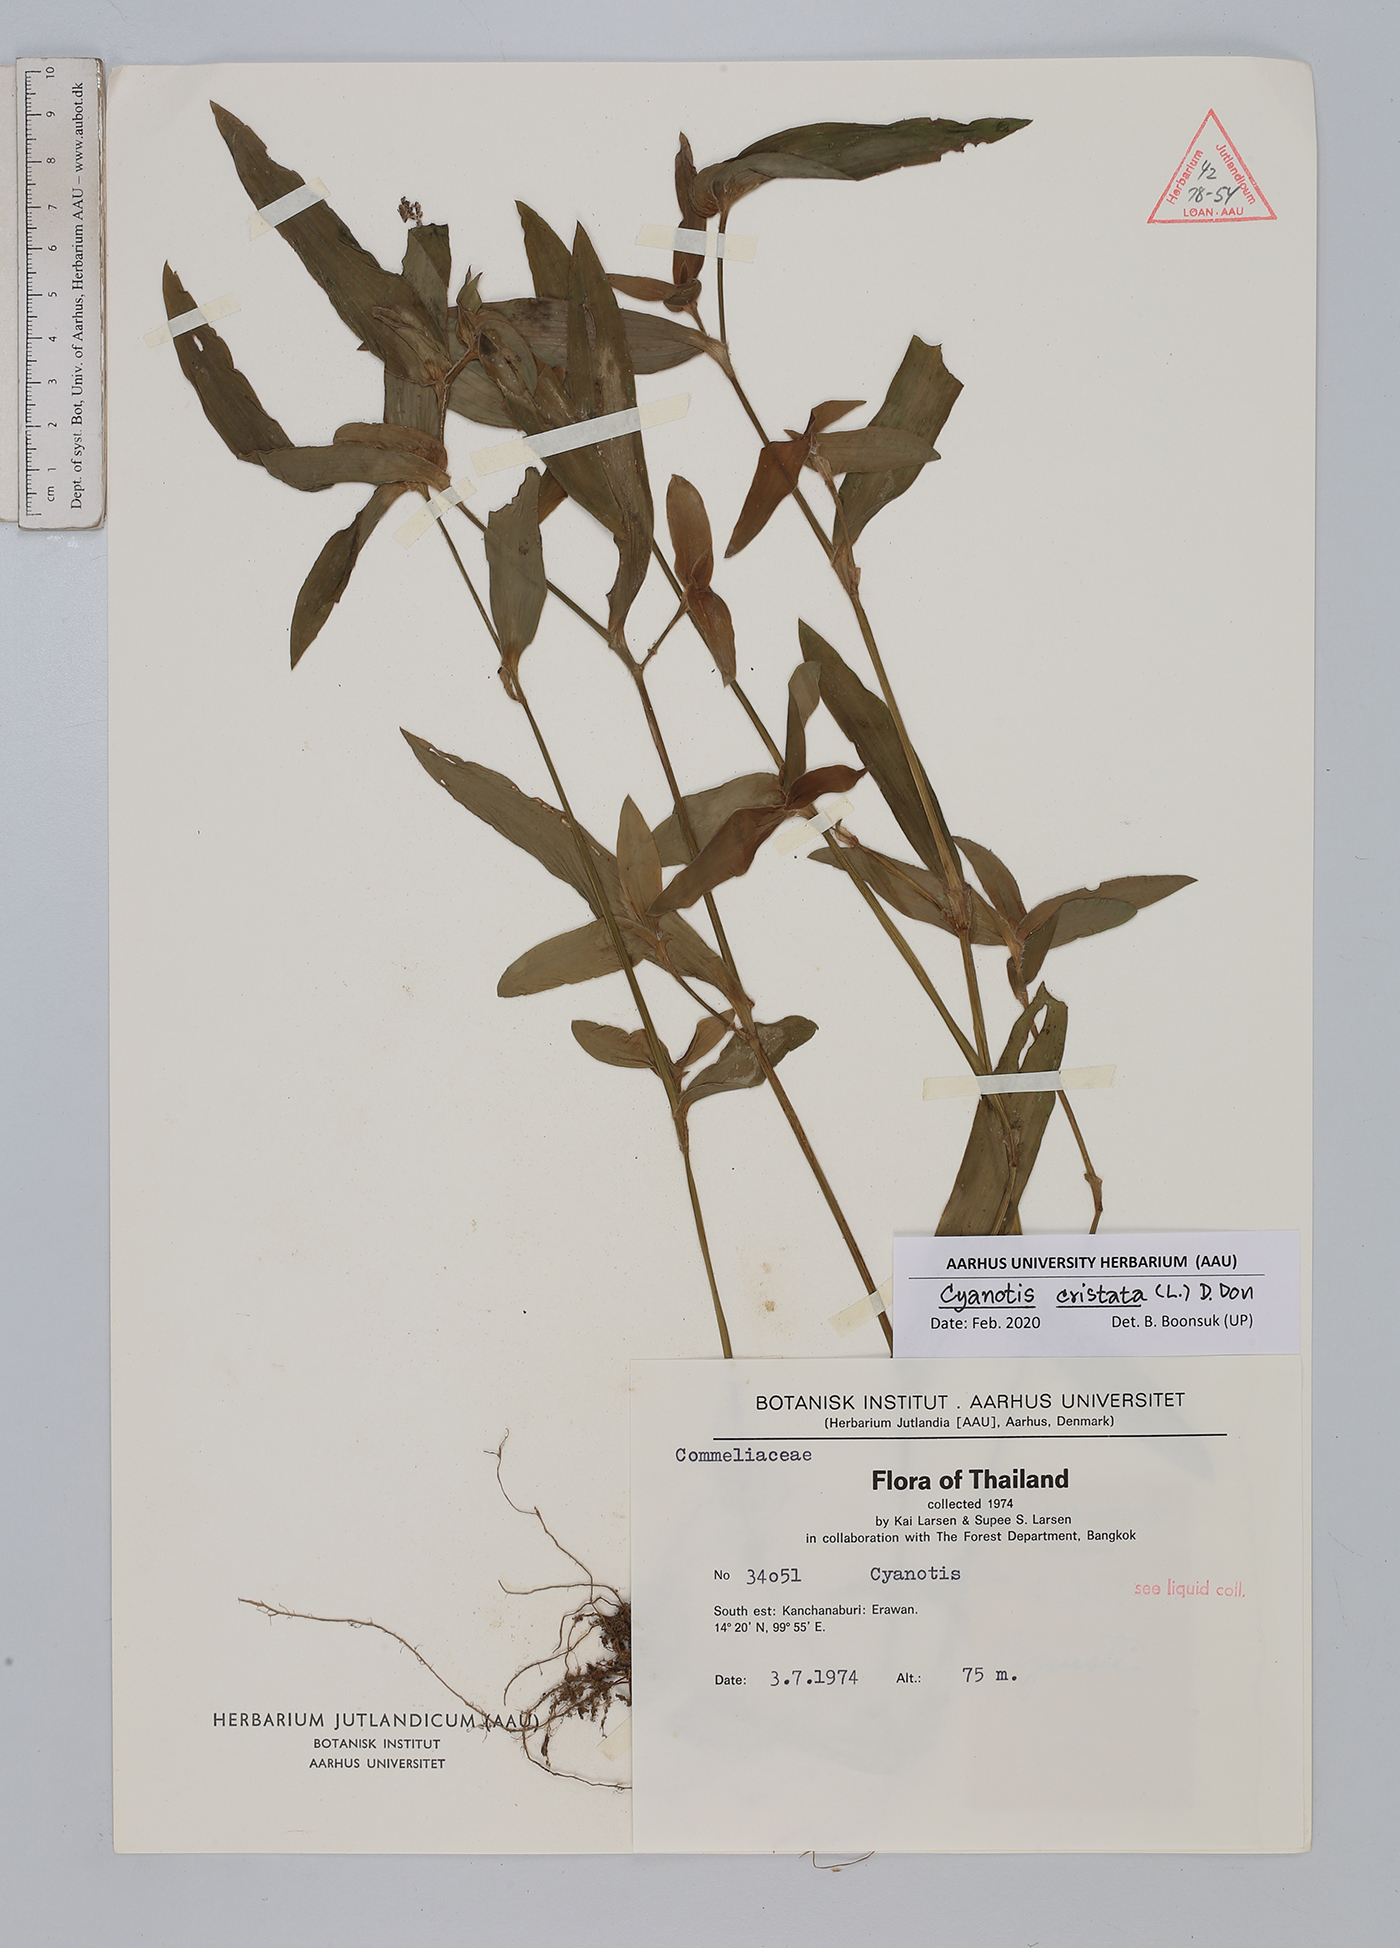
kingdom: Plantae
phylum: Tracheophyta
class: Liliopsida
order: Commelinales
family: Commelinaceae
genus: Cyanotis
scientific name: Cyanotis cristata
